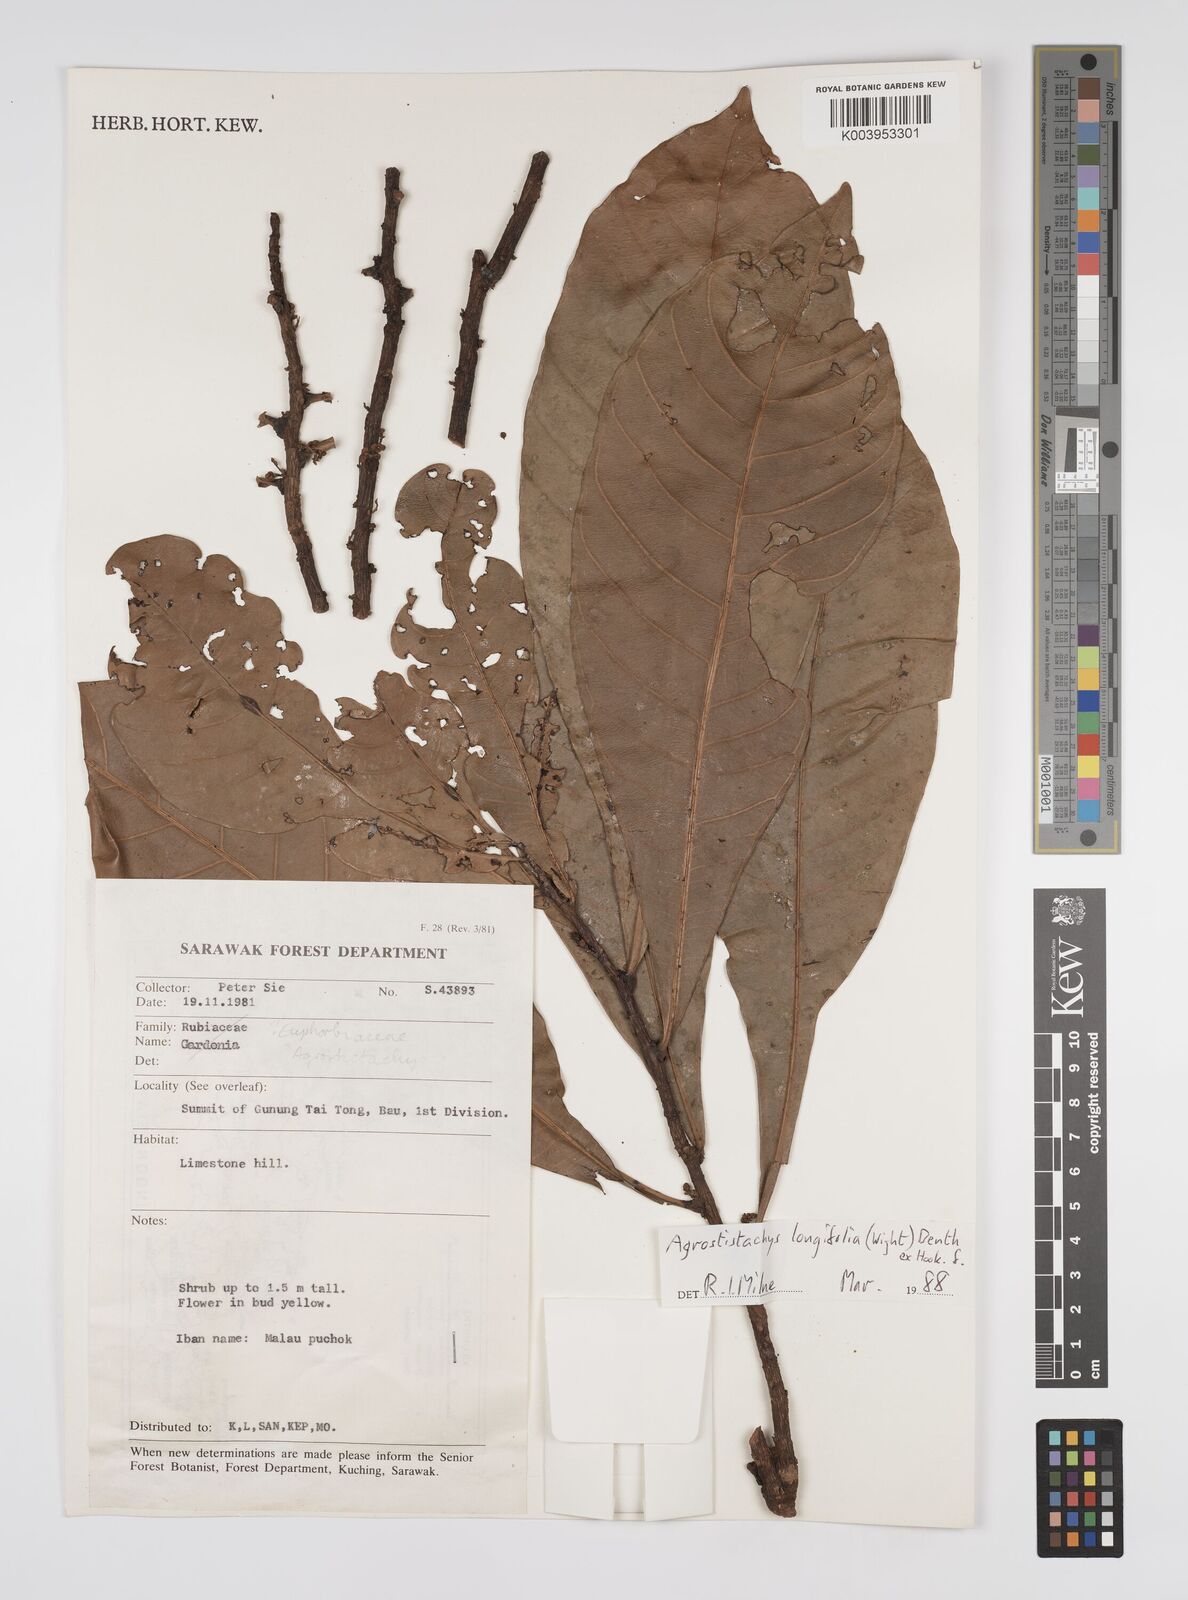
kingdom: Plantae
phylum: Tracheophyta
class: Magnoliopsida
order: Malpighiales
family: Euphorbiaceae
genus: Agrostistachys
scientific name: Agrostistachys
